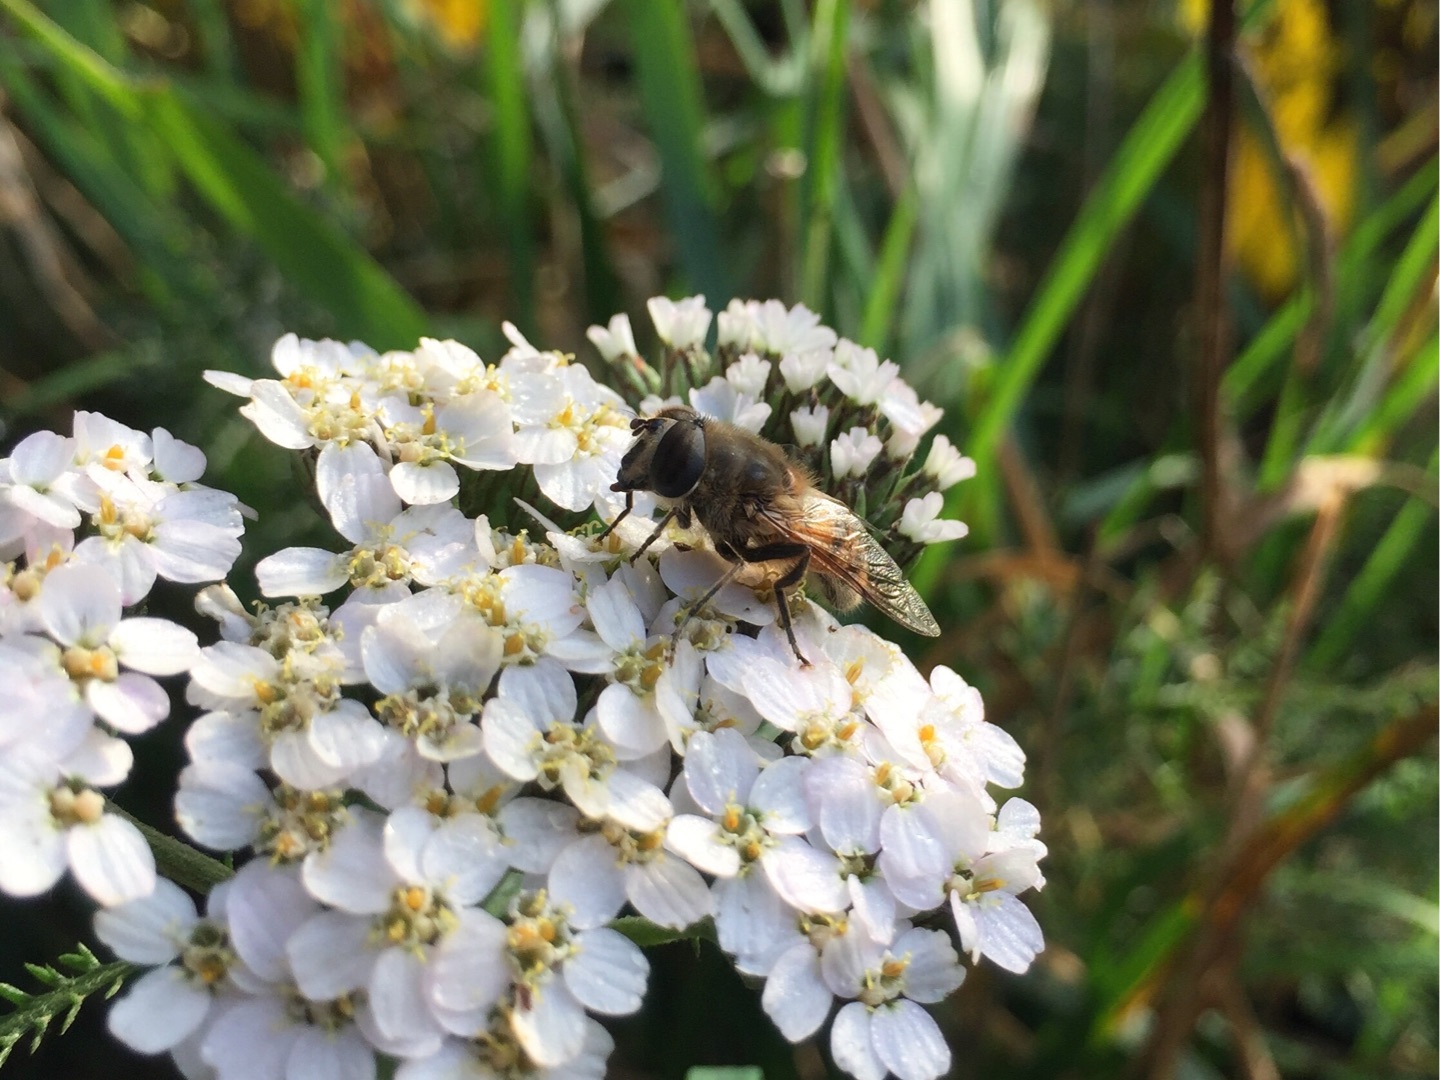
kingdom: Animalia
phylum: Arthropoda
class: Insecta
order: Diptera
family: Syrphidae
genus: Eristalis
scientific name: Eristalis tenax
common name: Droneflue
